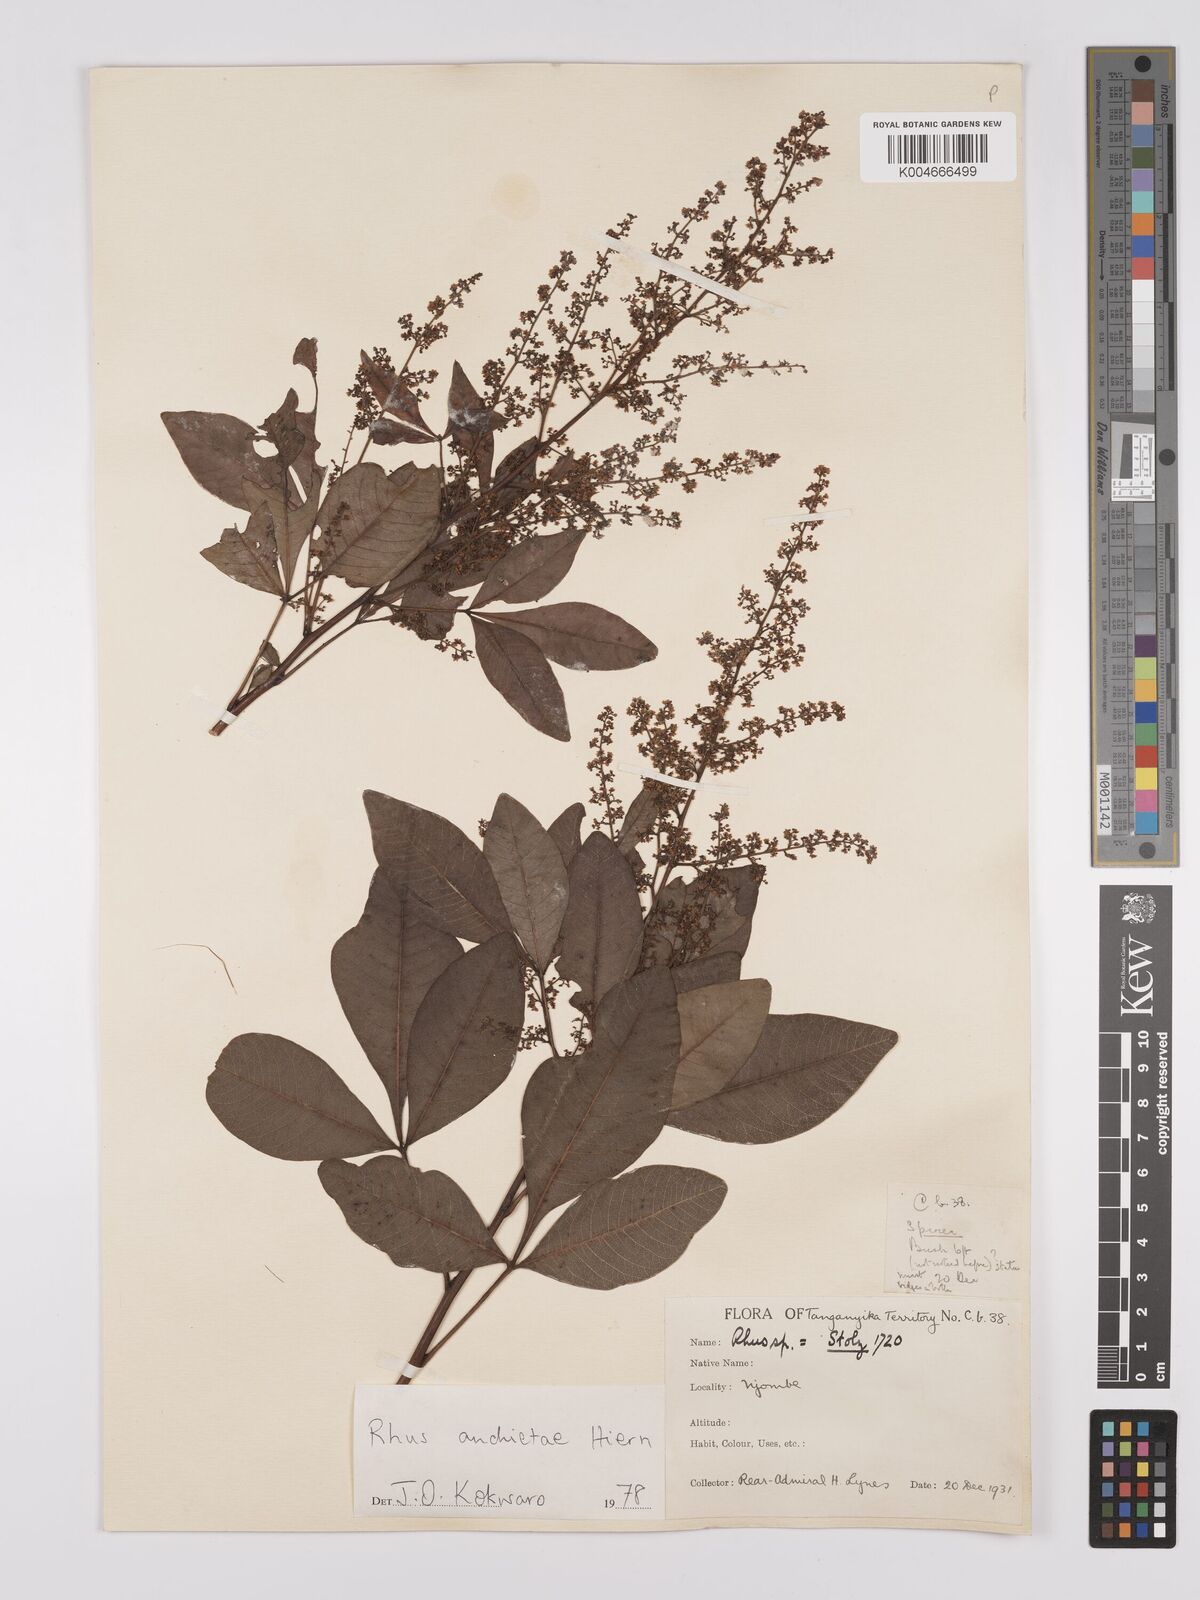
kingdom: Plantae
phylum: Tracheophyta
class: Magnoliopsida
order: Sapindales
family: Anacardiaceae
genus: Searsia
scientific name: Searsia anchietae
